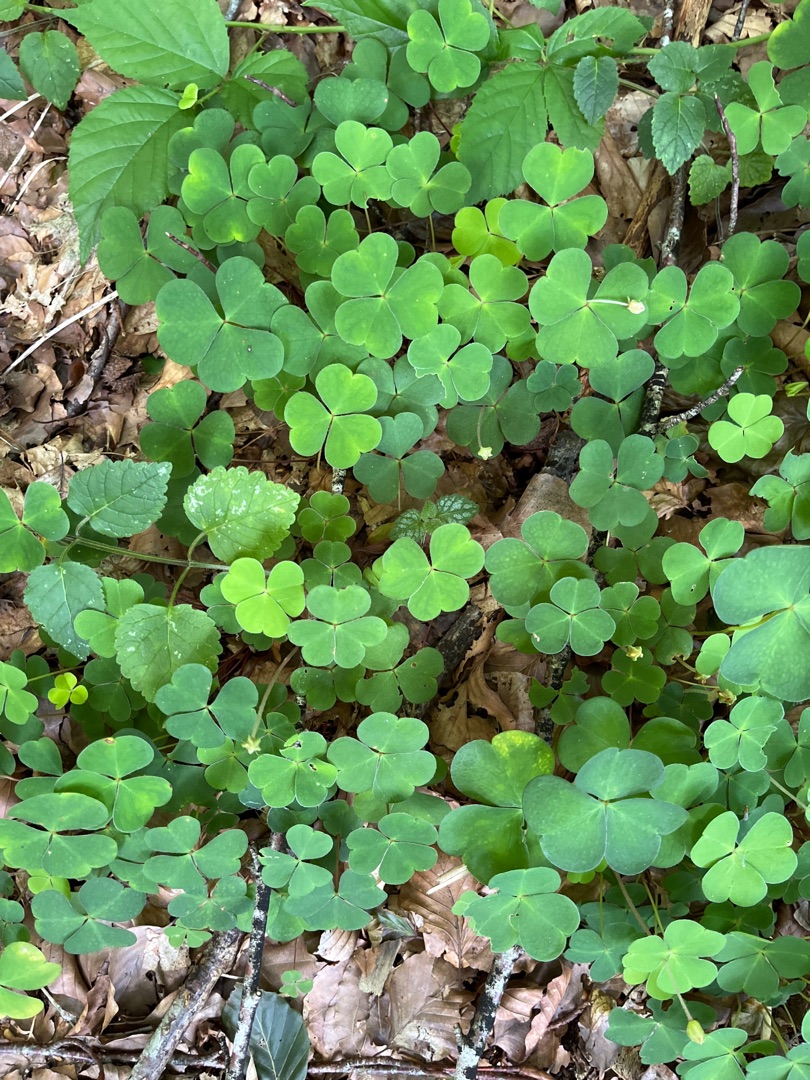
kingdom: Plantae
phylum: Tracheophyta
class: Magnoliopsida
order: Oxalidales
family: Oxalidaceae
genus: Oxalis
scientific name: Oxalis acetosella
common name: Skovsyre
